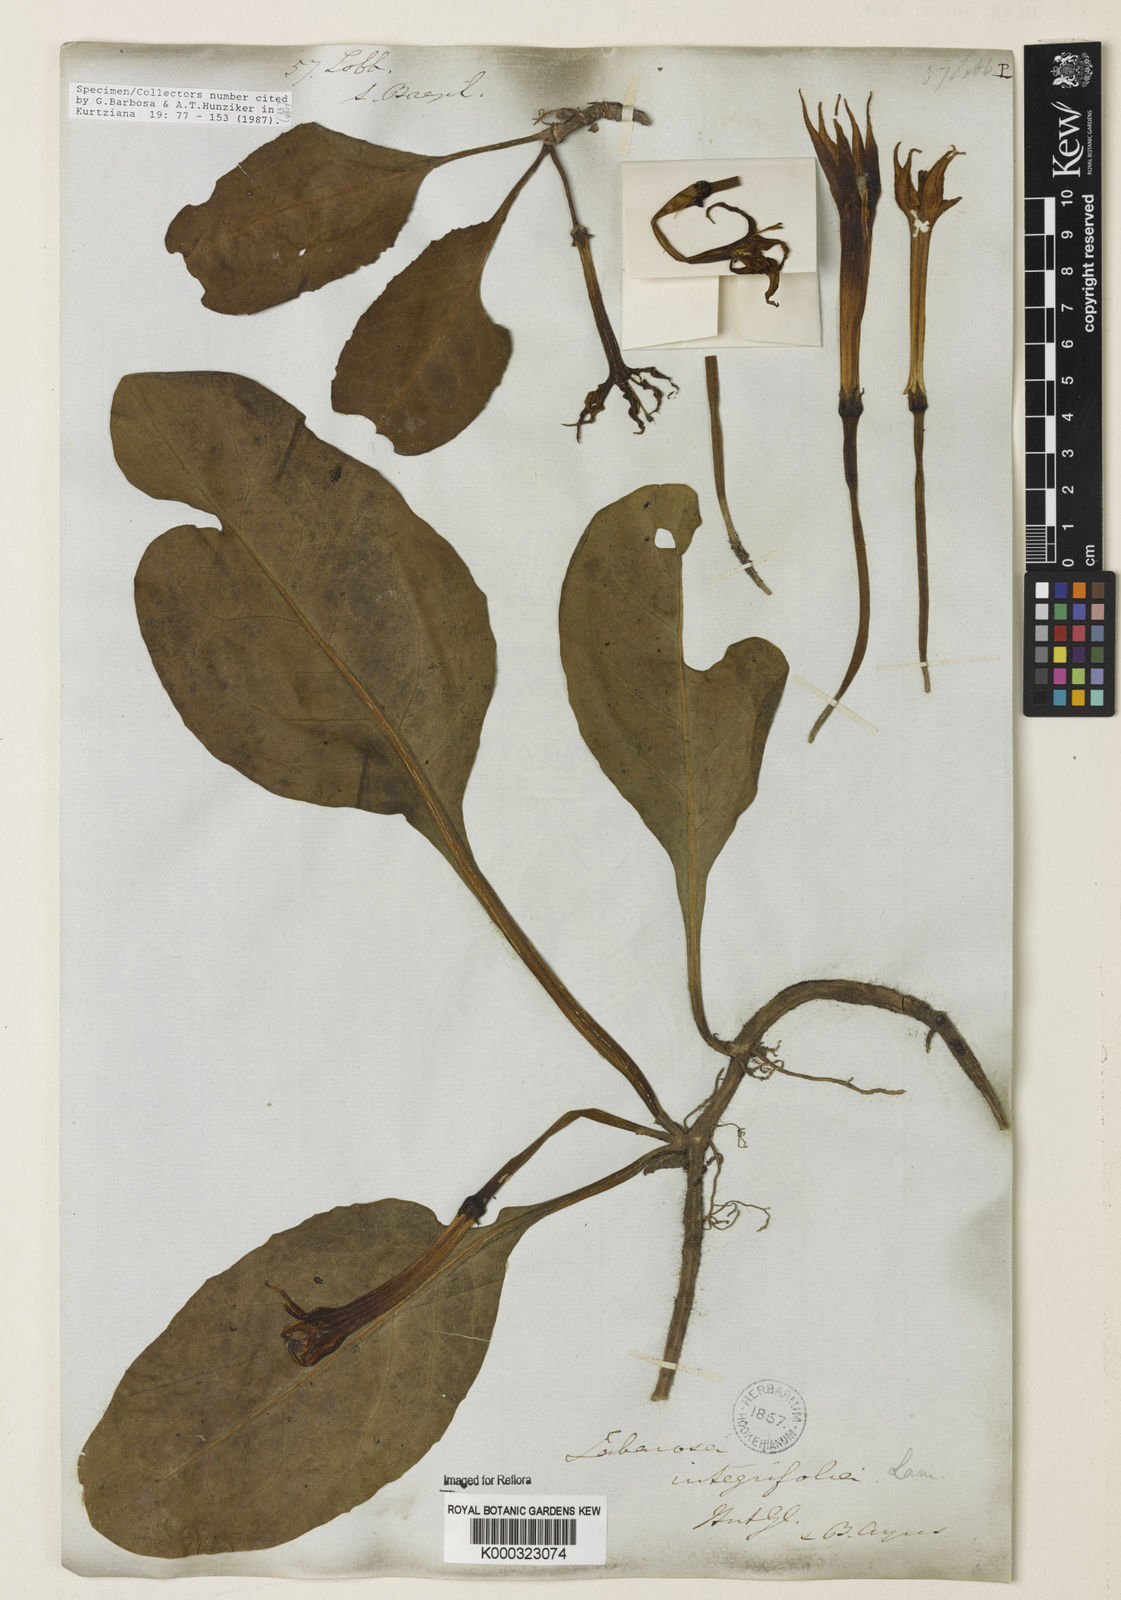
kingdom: Plantae
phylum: Tracheophyta
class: Magnoliopsida
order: Solanales
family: Solanaceae
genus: Jaborosa
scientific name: Jaborosa integrifolia
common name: Springblossom
